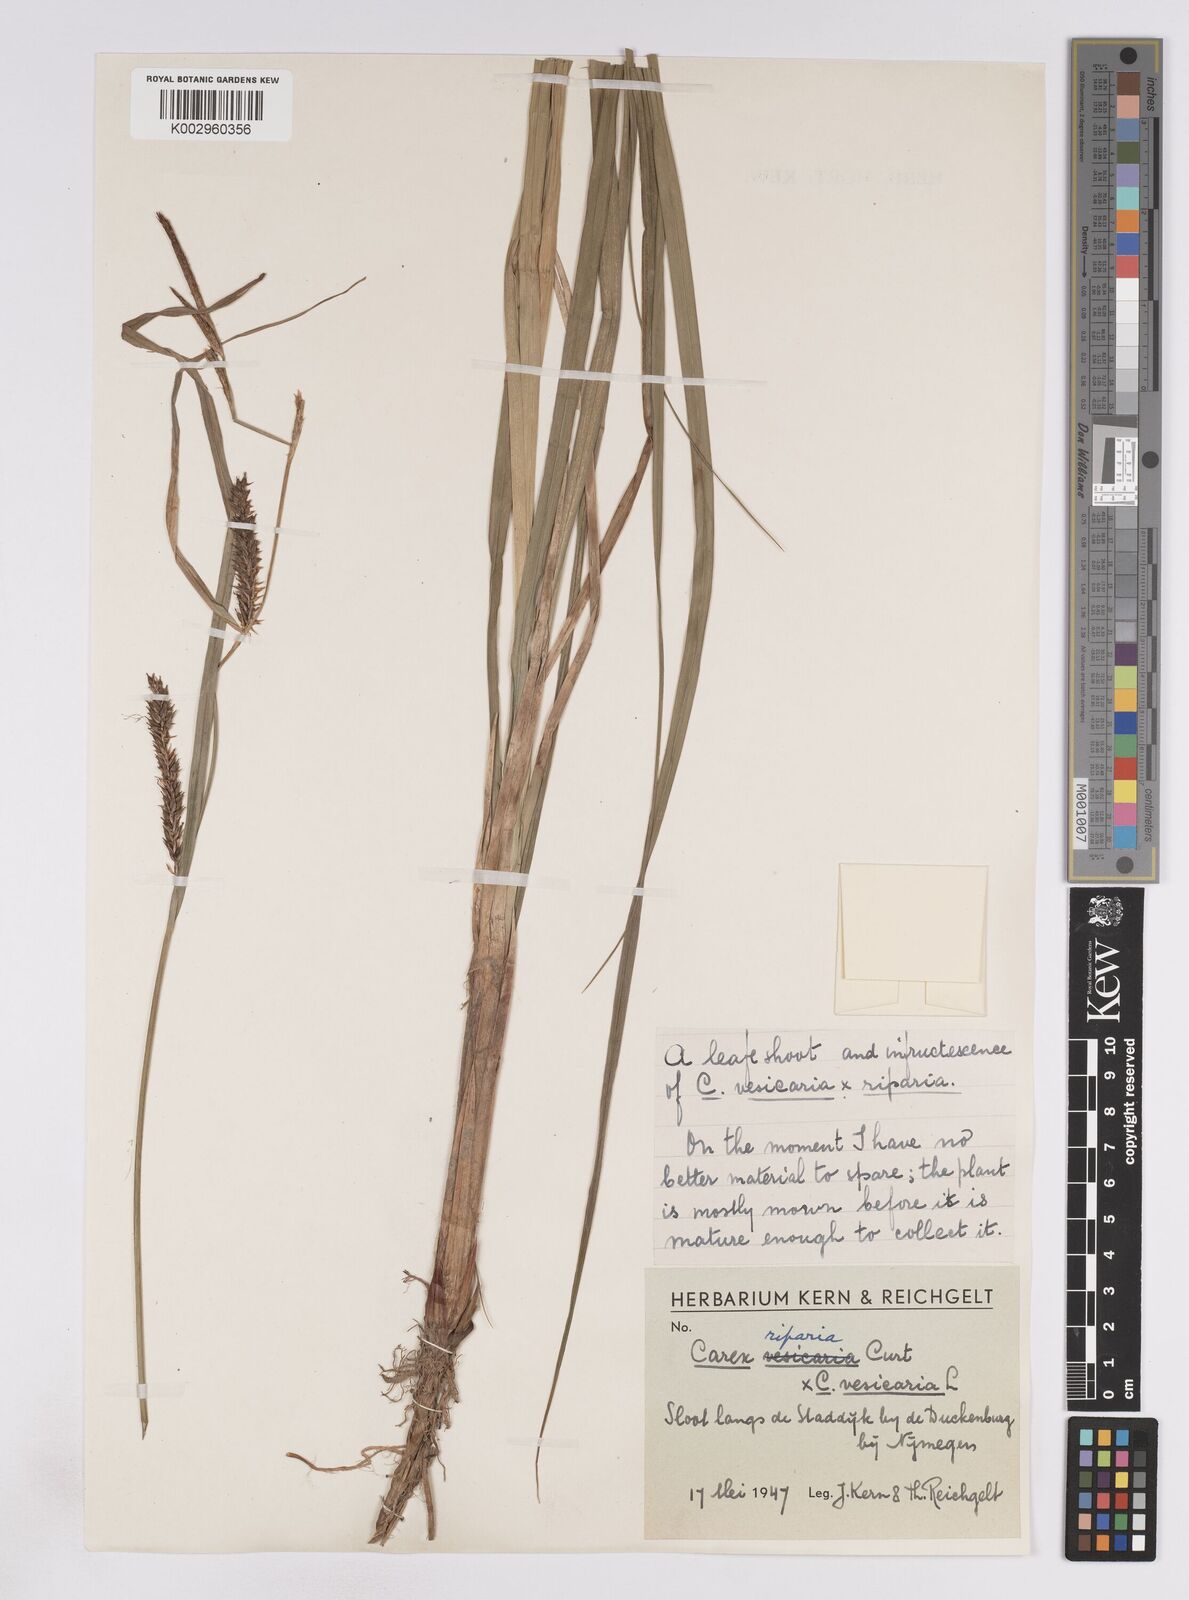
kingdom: Plantae
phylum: Tracheophyta
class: Liliopsida
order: Poales
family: Cyperaceae
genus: Carex
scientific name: Carex vesicaria
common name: Bladder-sedge
